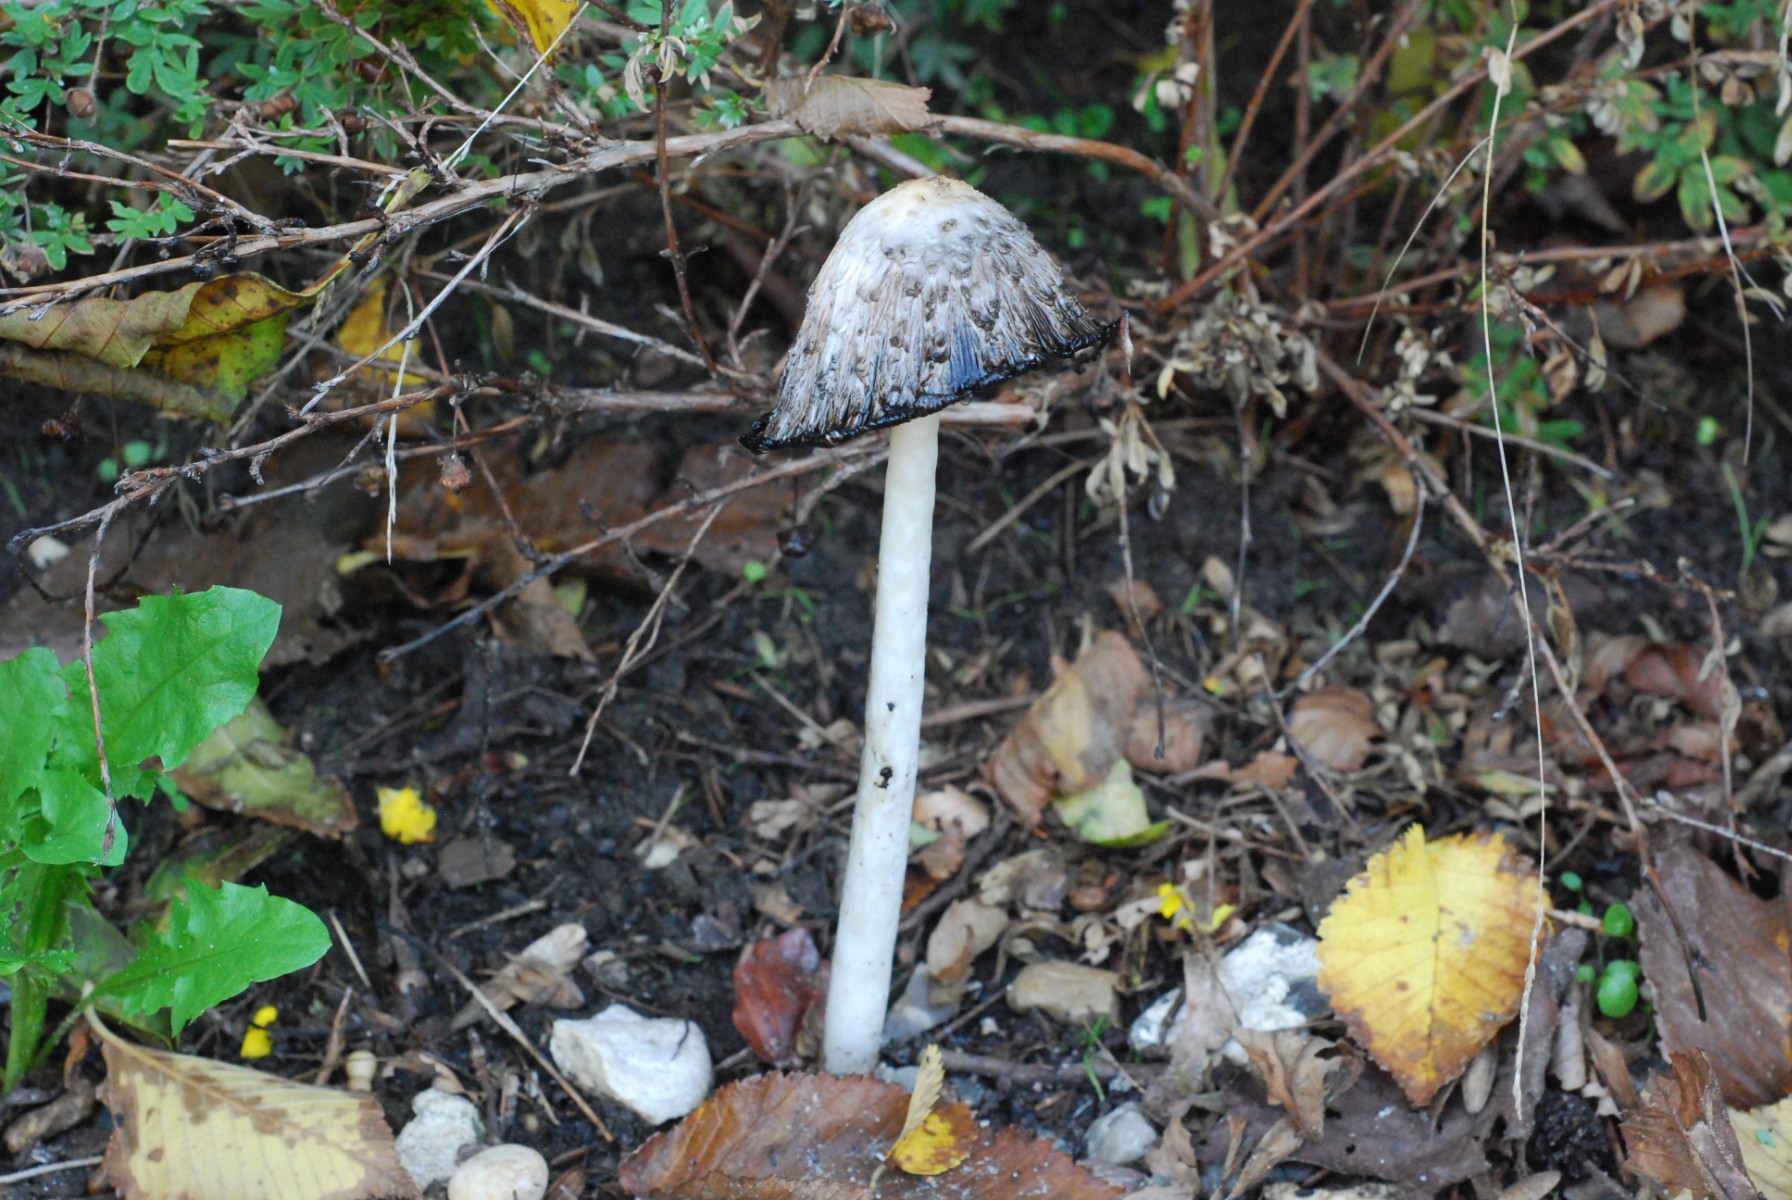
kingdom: Fungi
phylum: Basidiomycota
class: Agaricomycetes
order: Agaricales
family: Agaricaceae
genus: Coprinus
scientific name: Coprinus comatus
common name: stor parykhat
